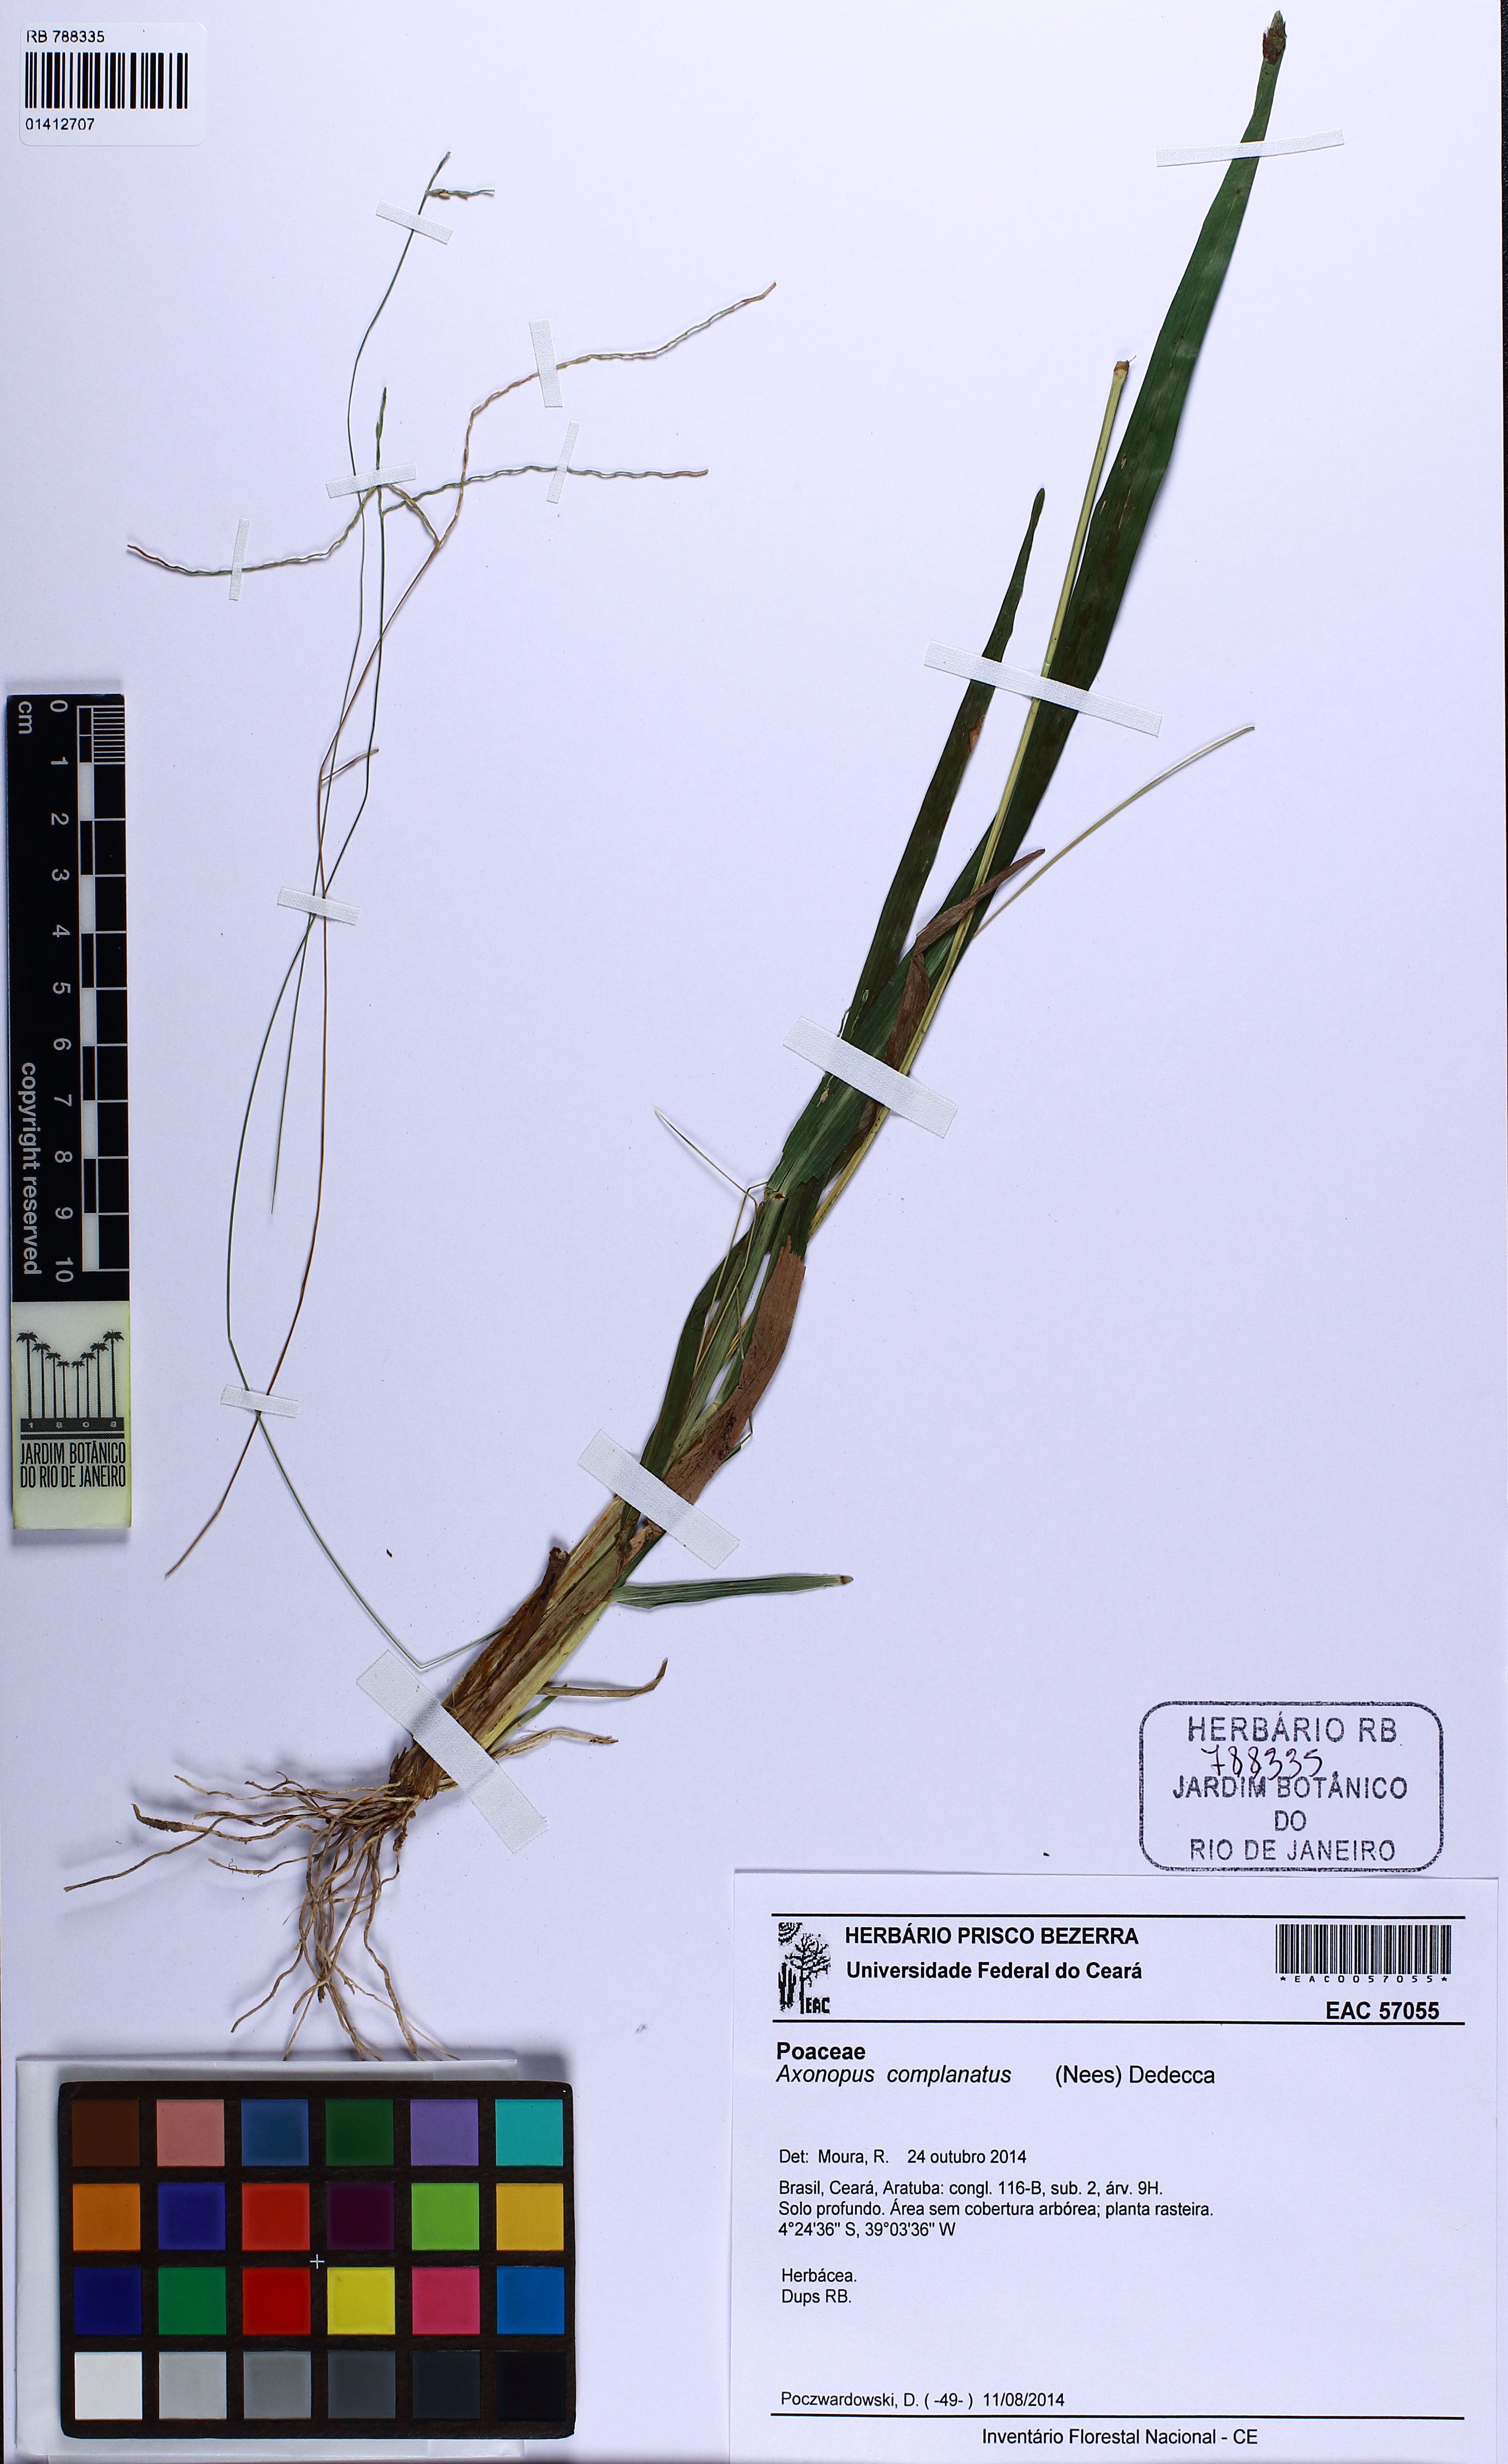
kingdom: Plantae
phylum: Tracheophyta
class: Liliopsida
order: Poales
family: Poaceae
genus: Axonopus
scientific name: Axonopus complanatus
